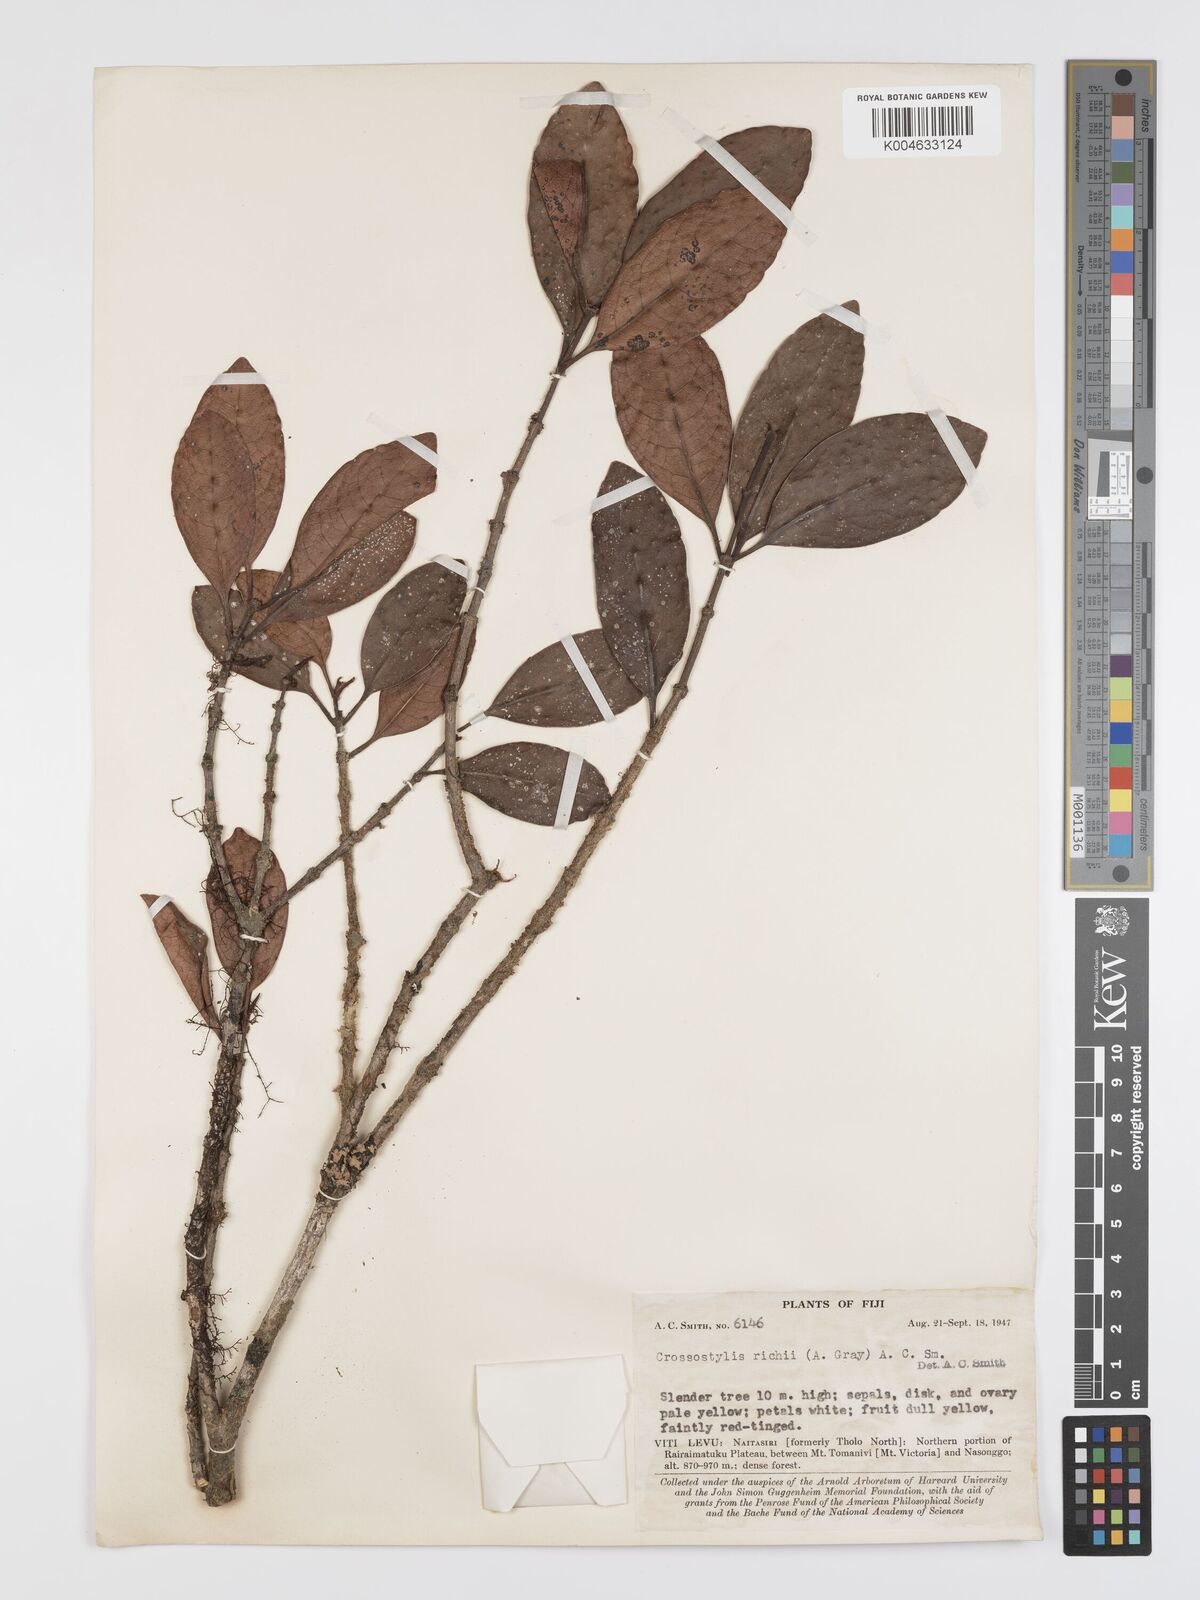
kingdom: Plantae
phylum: Tracheophyta
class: Magnoliopsida
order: Malpighiales
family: Rhizophoraceae
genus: Crossostylis
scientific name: Crossostylis richii
